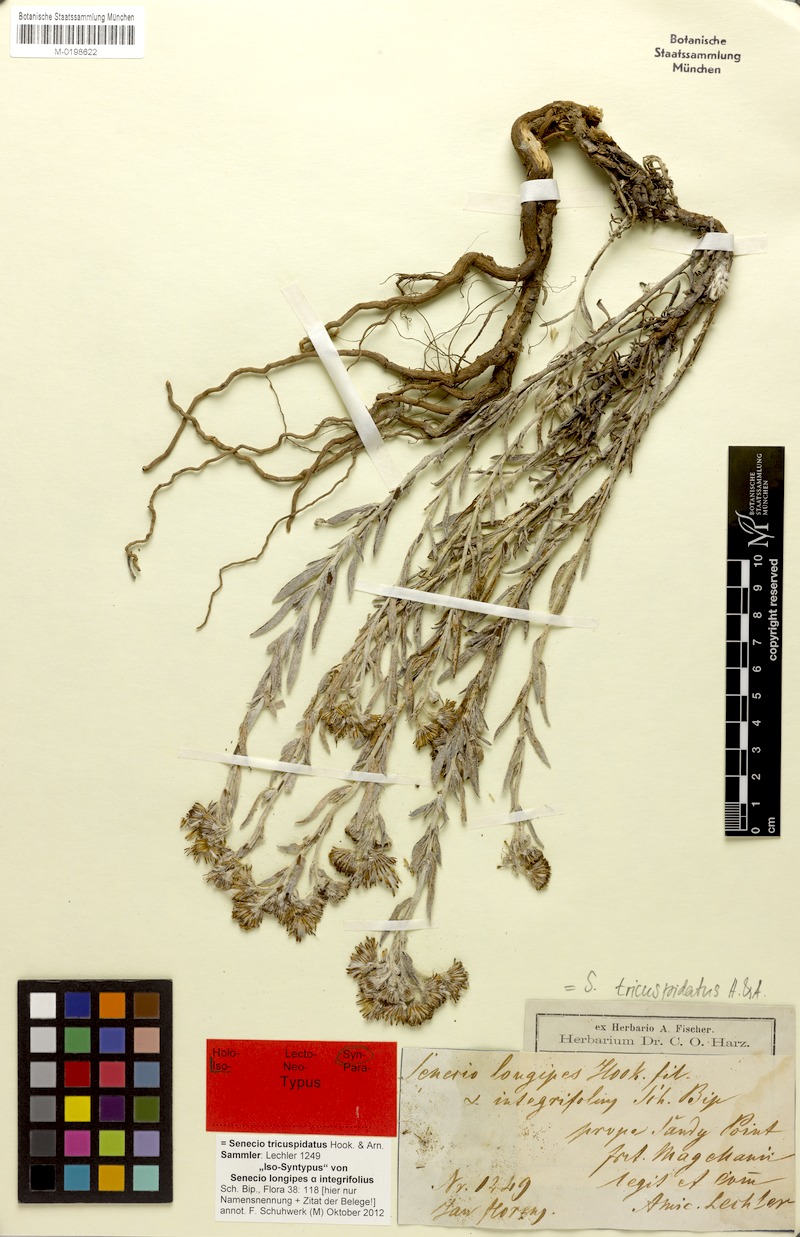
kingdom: Plantae
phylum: Tracheophyta
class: Magnoliopsida
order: Asterales
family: Asteraceae
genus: Senecio
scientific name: Senecio tricuspidatus
